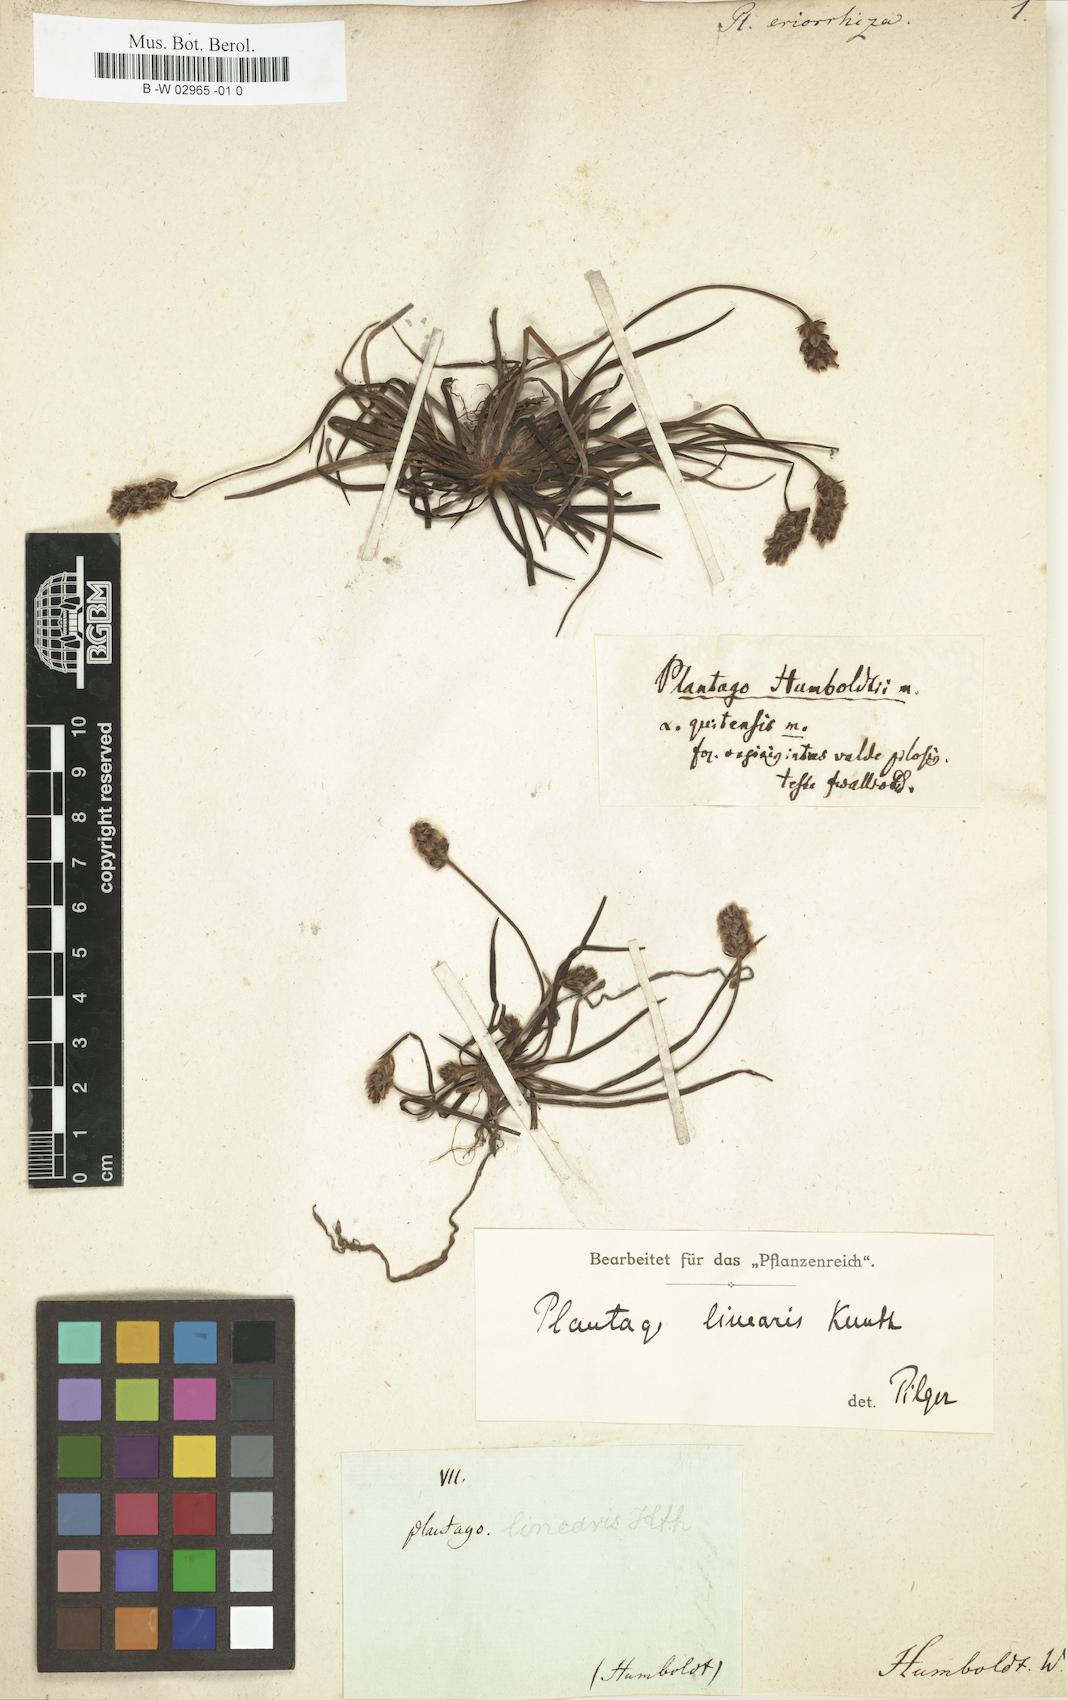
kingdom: Plantae
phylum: Tracheophyta
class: Magnoliopsida
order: Lamiales
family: Plantaginaceae
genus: Plantago
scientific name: Plantago linearis
